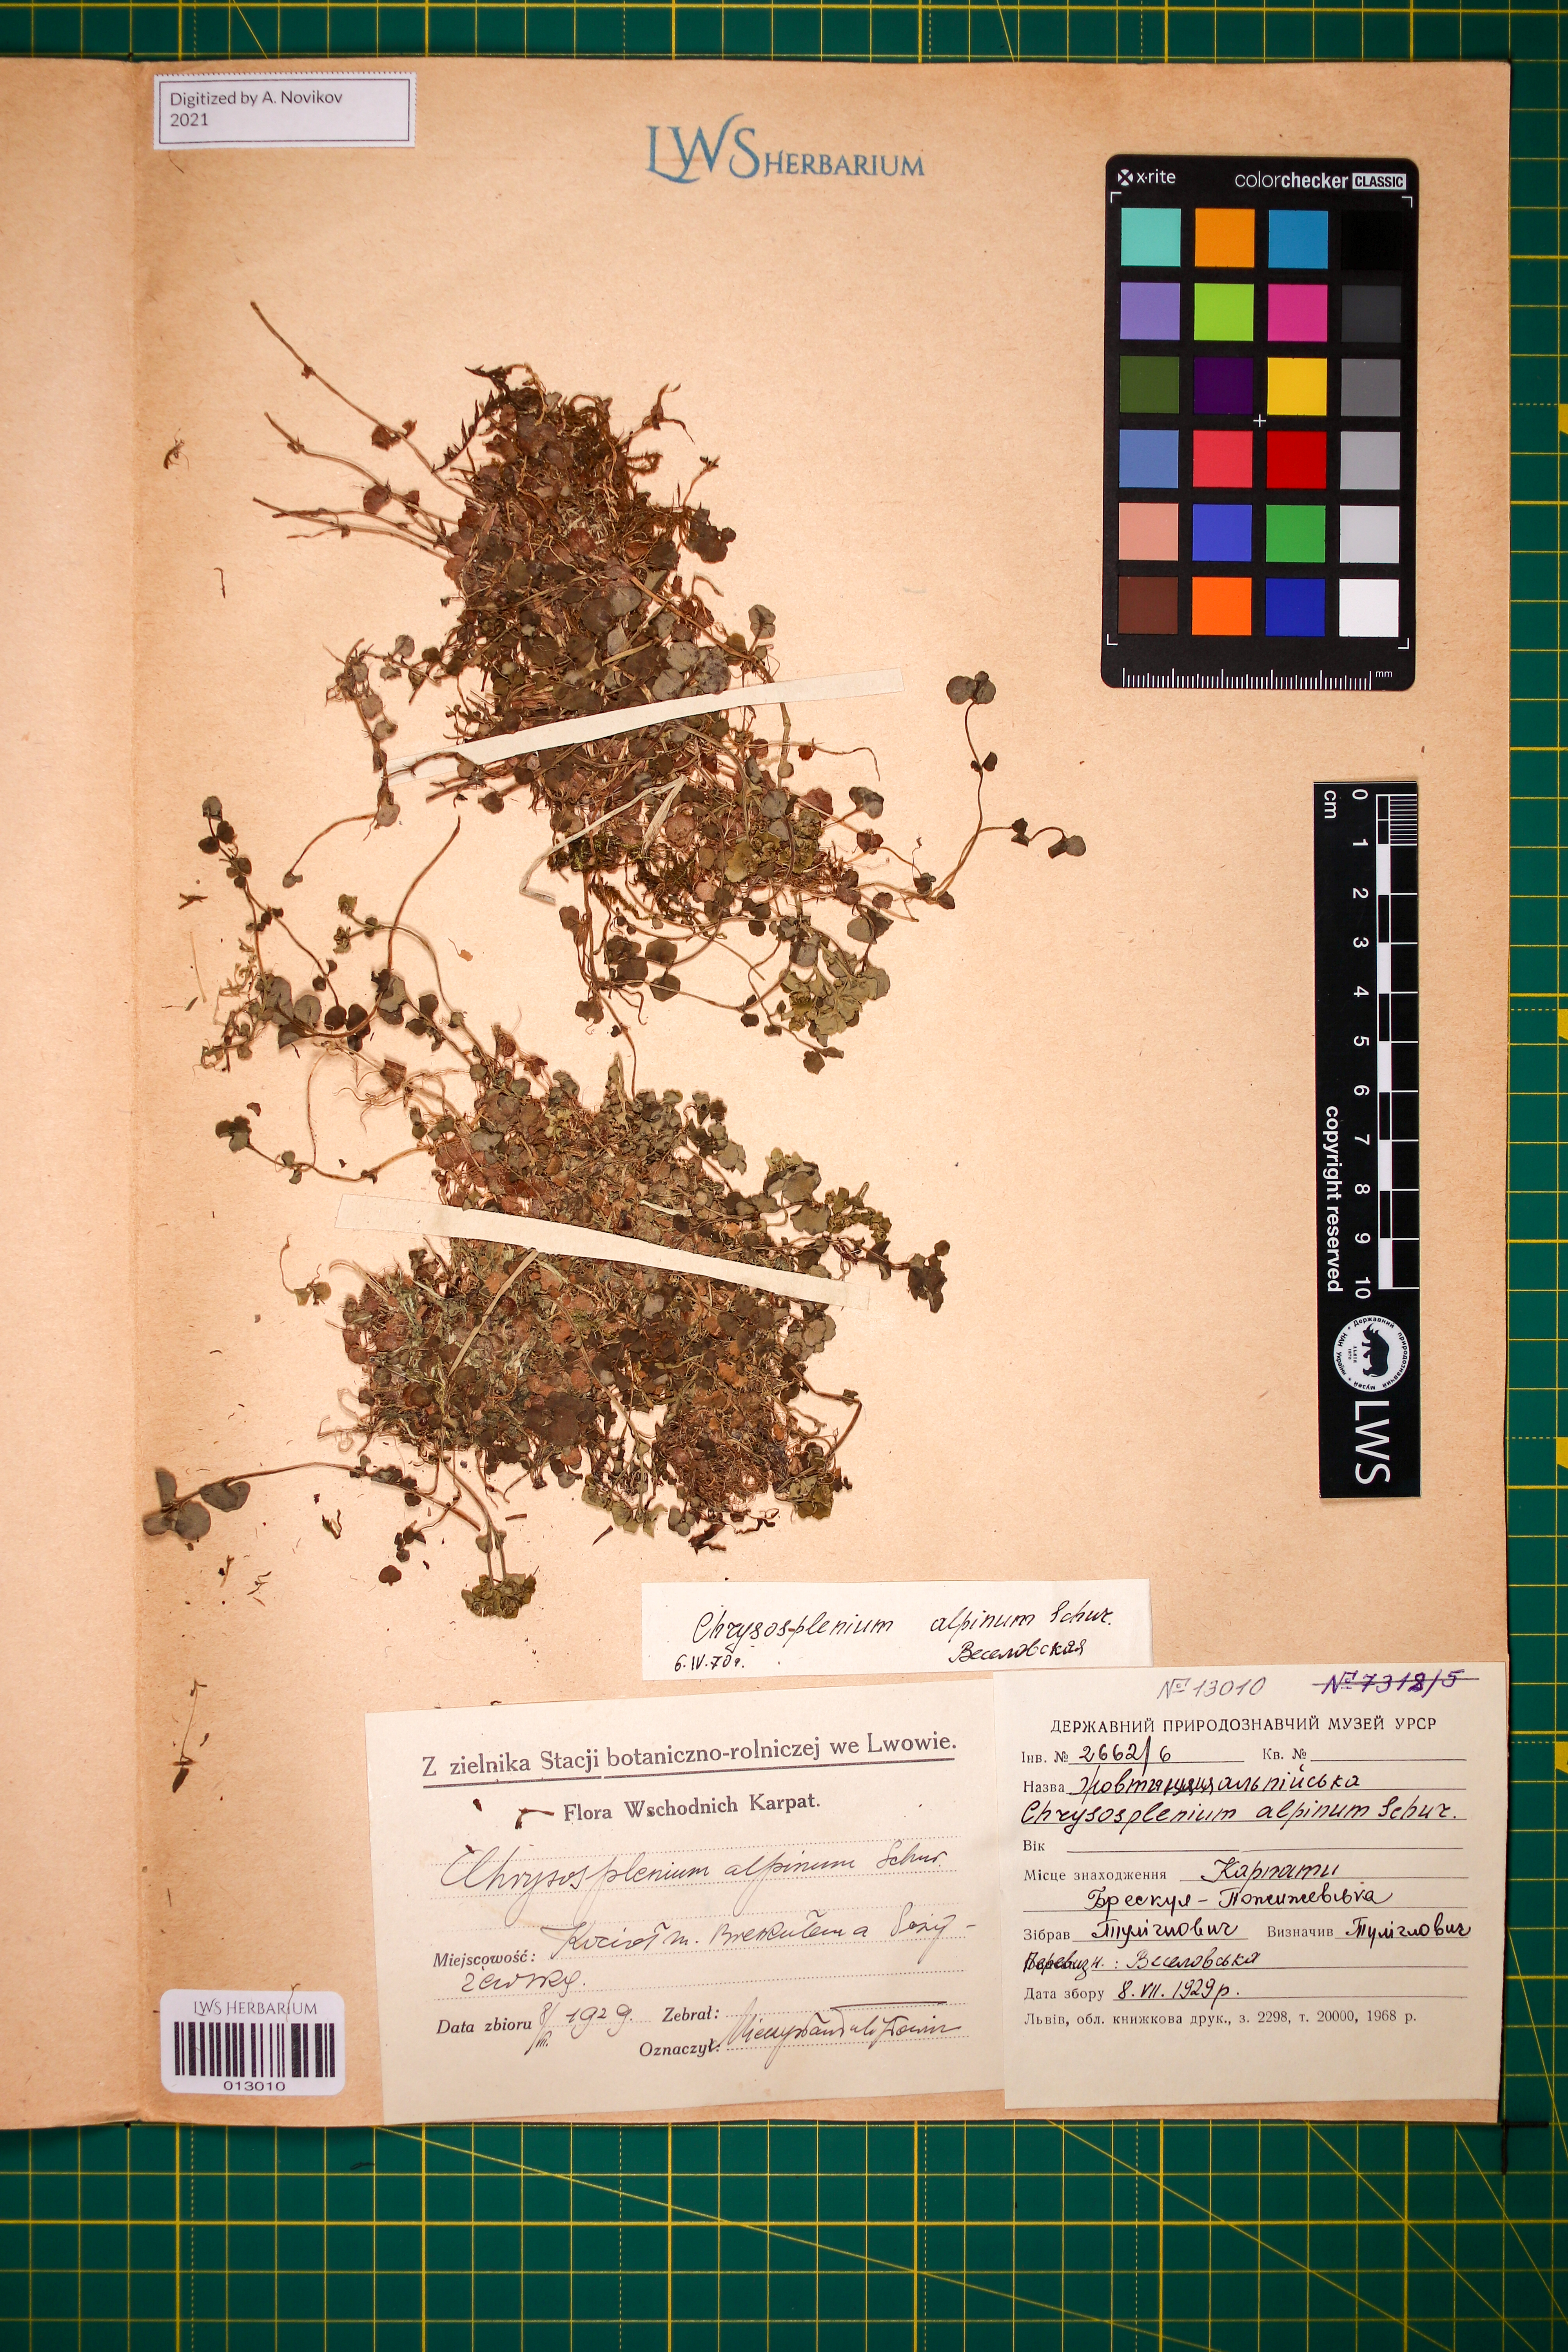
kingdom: Plantae
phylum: Tracheophyta
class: Magnoliopsida
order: Saxifragales
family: Saxifragaceae
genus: Chrysosplenium
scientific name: Chrysosplenium alpinum
